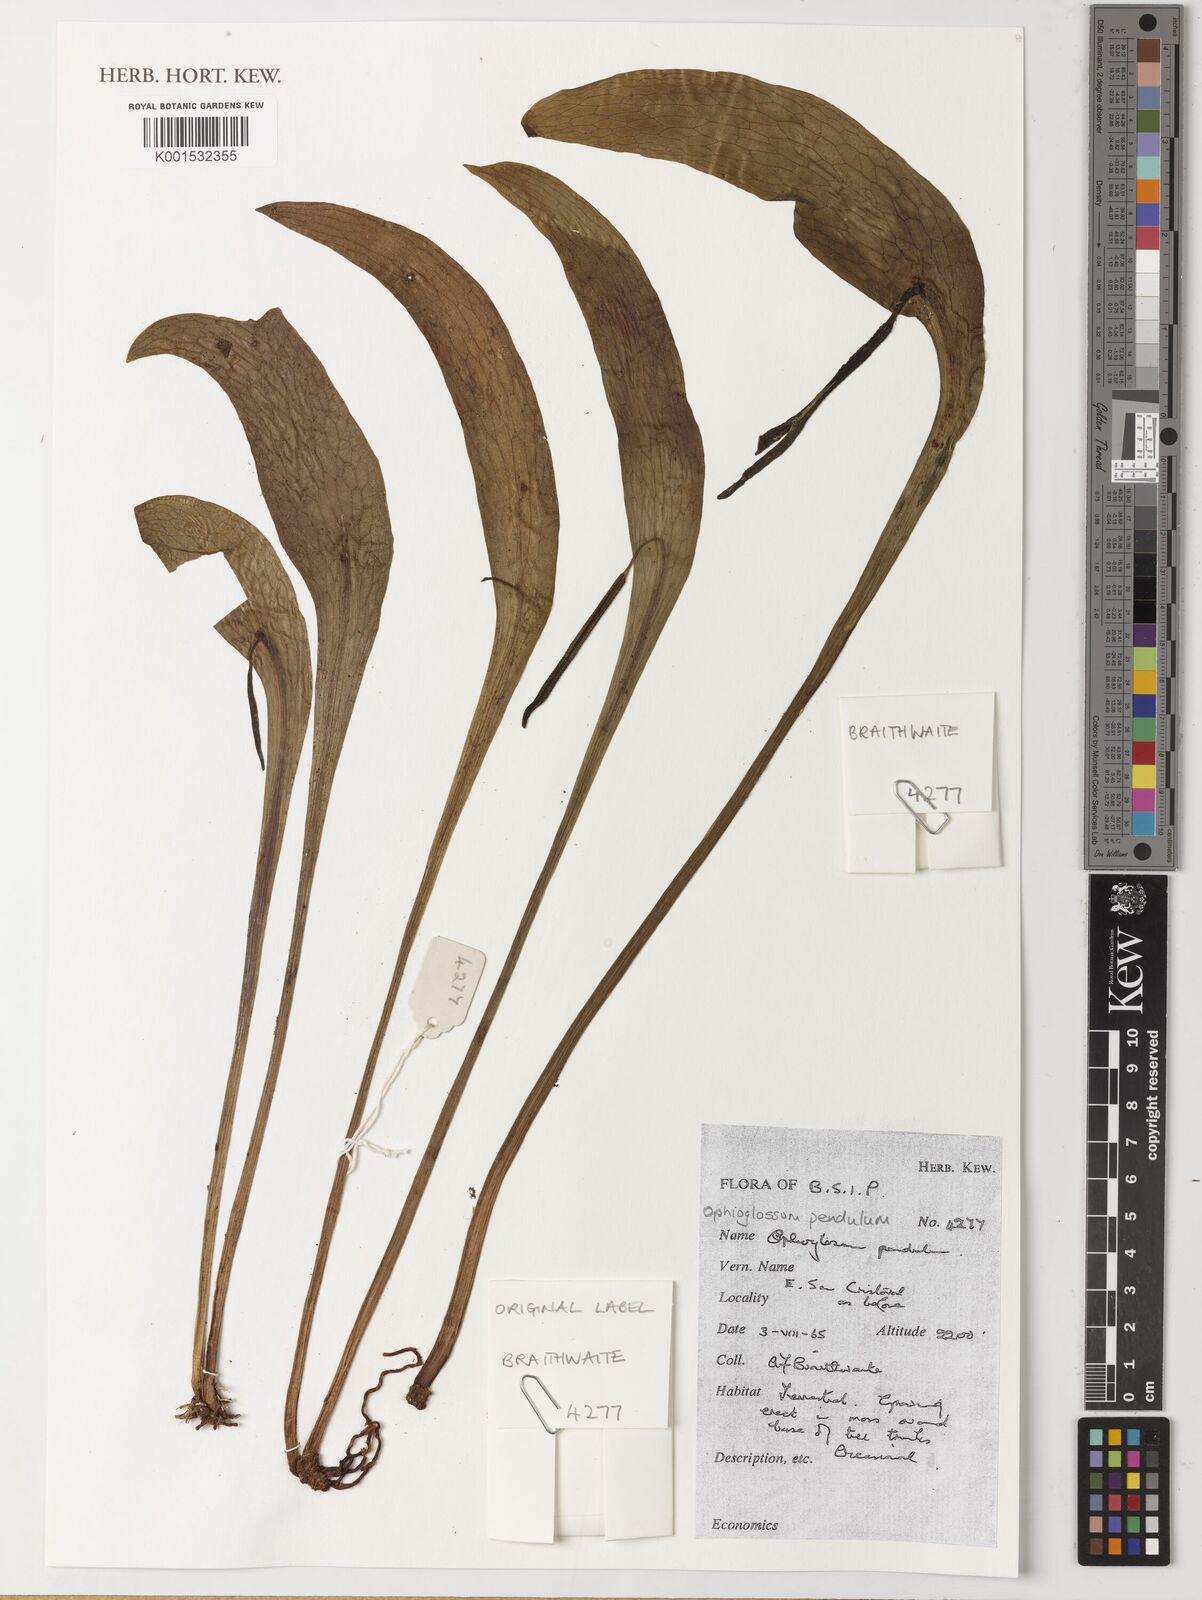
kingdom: Plantae
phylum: Tracheophyta
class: Polypodiopsida
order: Ophioglossales
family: Ophioglossaceae
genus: Ophioderma
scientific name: Ophioderma pendulum
